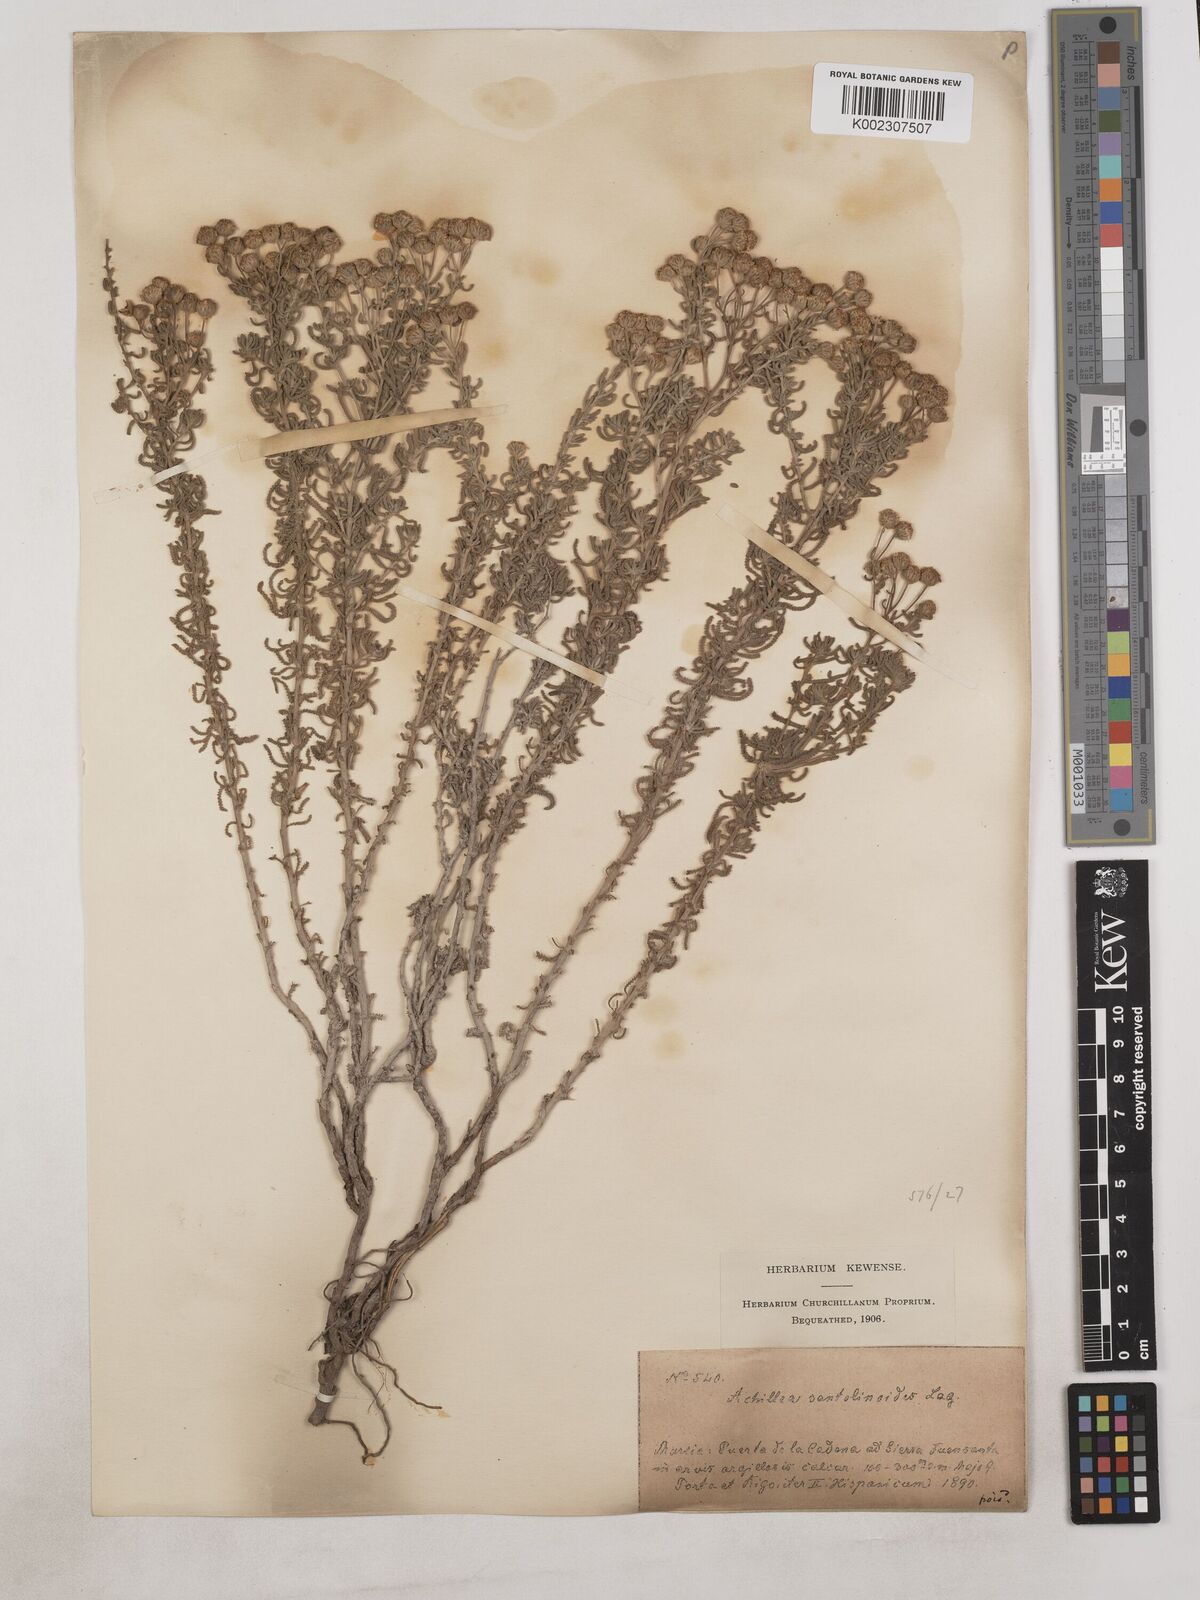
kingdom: Plantae
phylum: Tracheophyta
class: Magnoliopsida
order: Asterales
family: Asteraceae
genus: Achillea
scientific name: Achillea santolinoides
